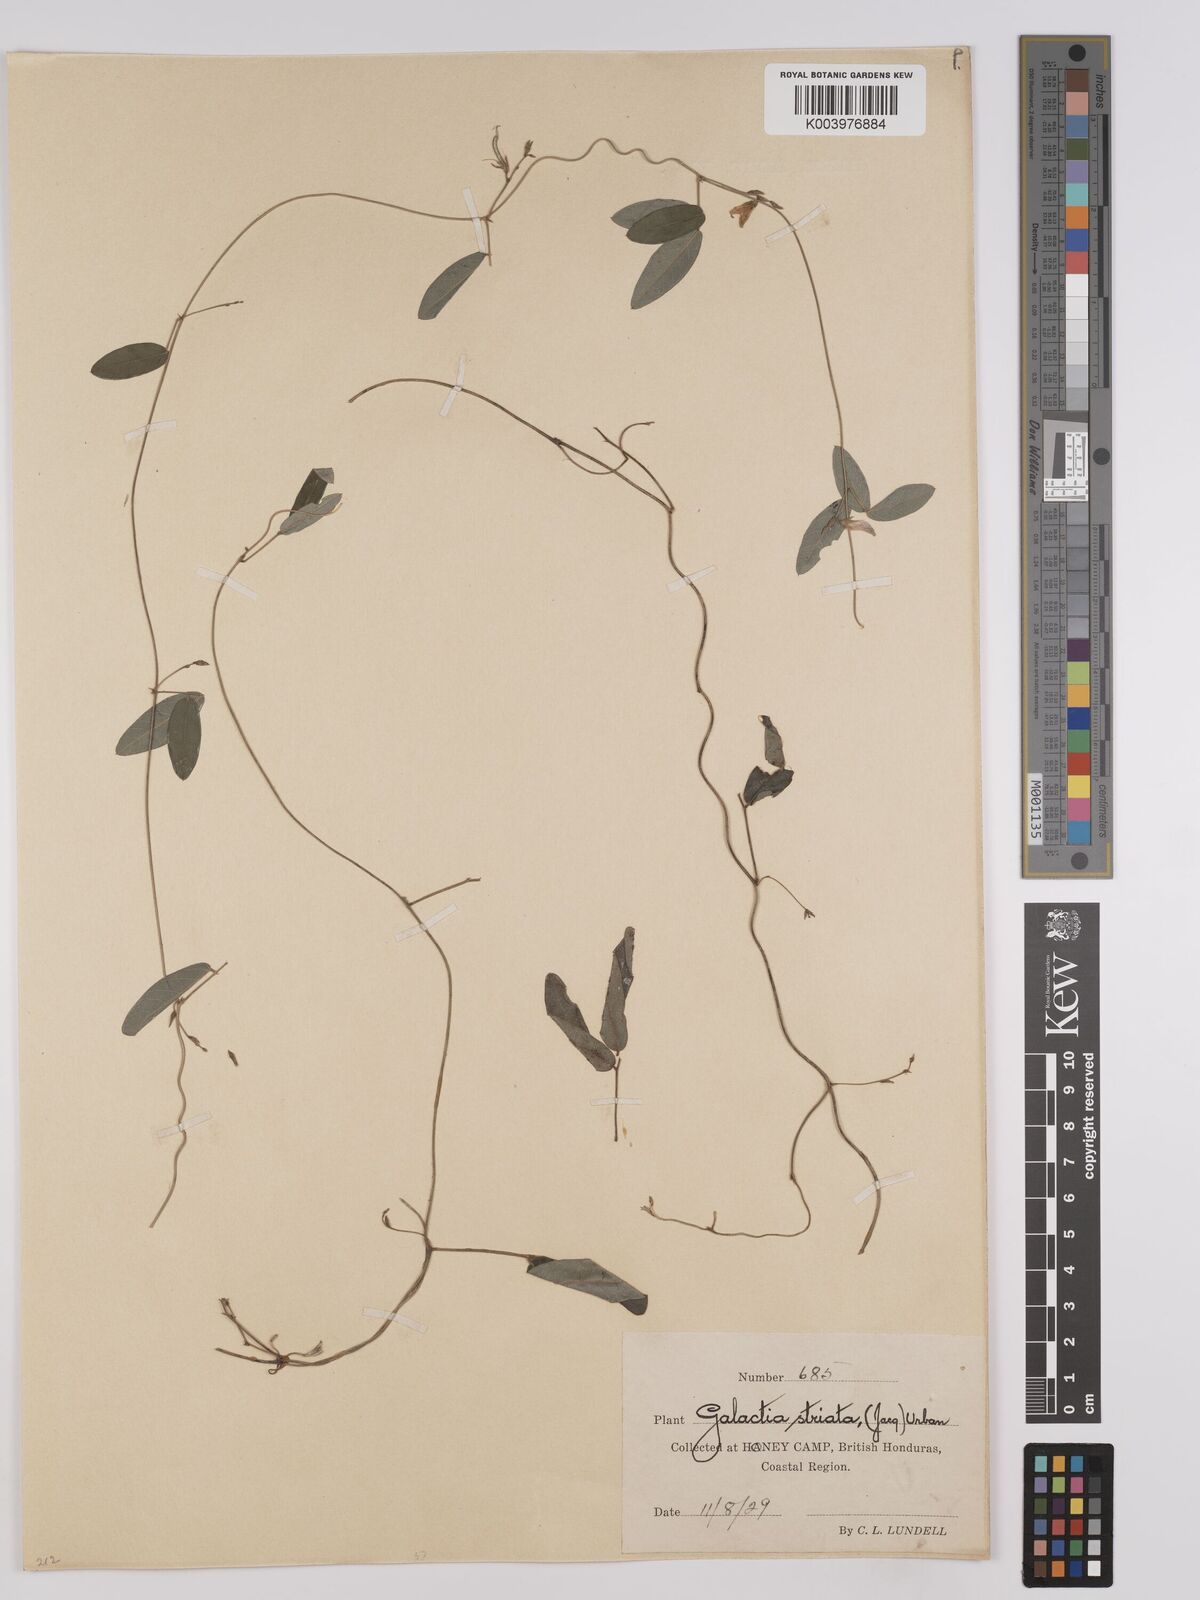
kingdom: Plantae
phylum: Tracheophyta
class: Magnoliopsida
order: Fabales
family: Fabaceae
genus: Galactia
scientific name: Galactia striata
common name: Florida hammock milkpea
